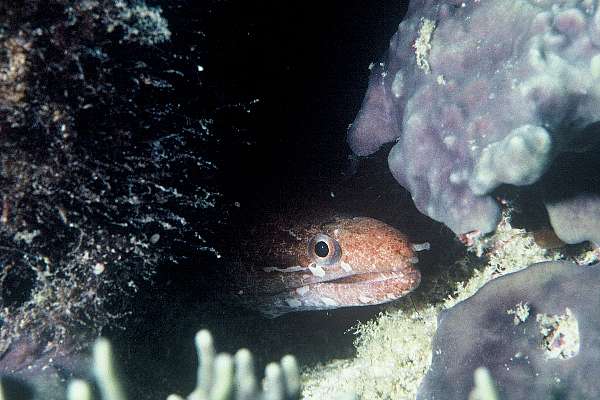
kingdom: Animalia
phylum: Chordata
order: Anguilliformes
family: Muraenidae
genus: Gymnothorax
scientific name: Gymnothorax zonipectis
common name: Bar-tail moray
